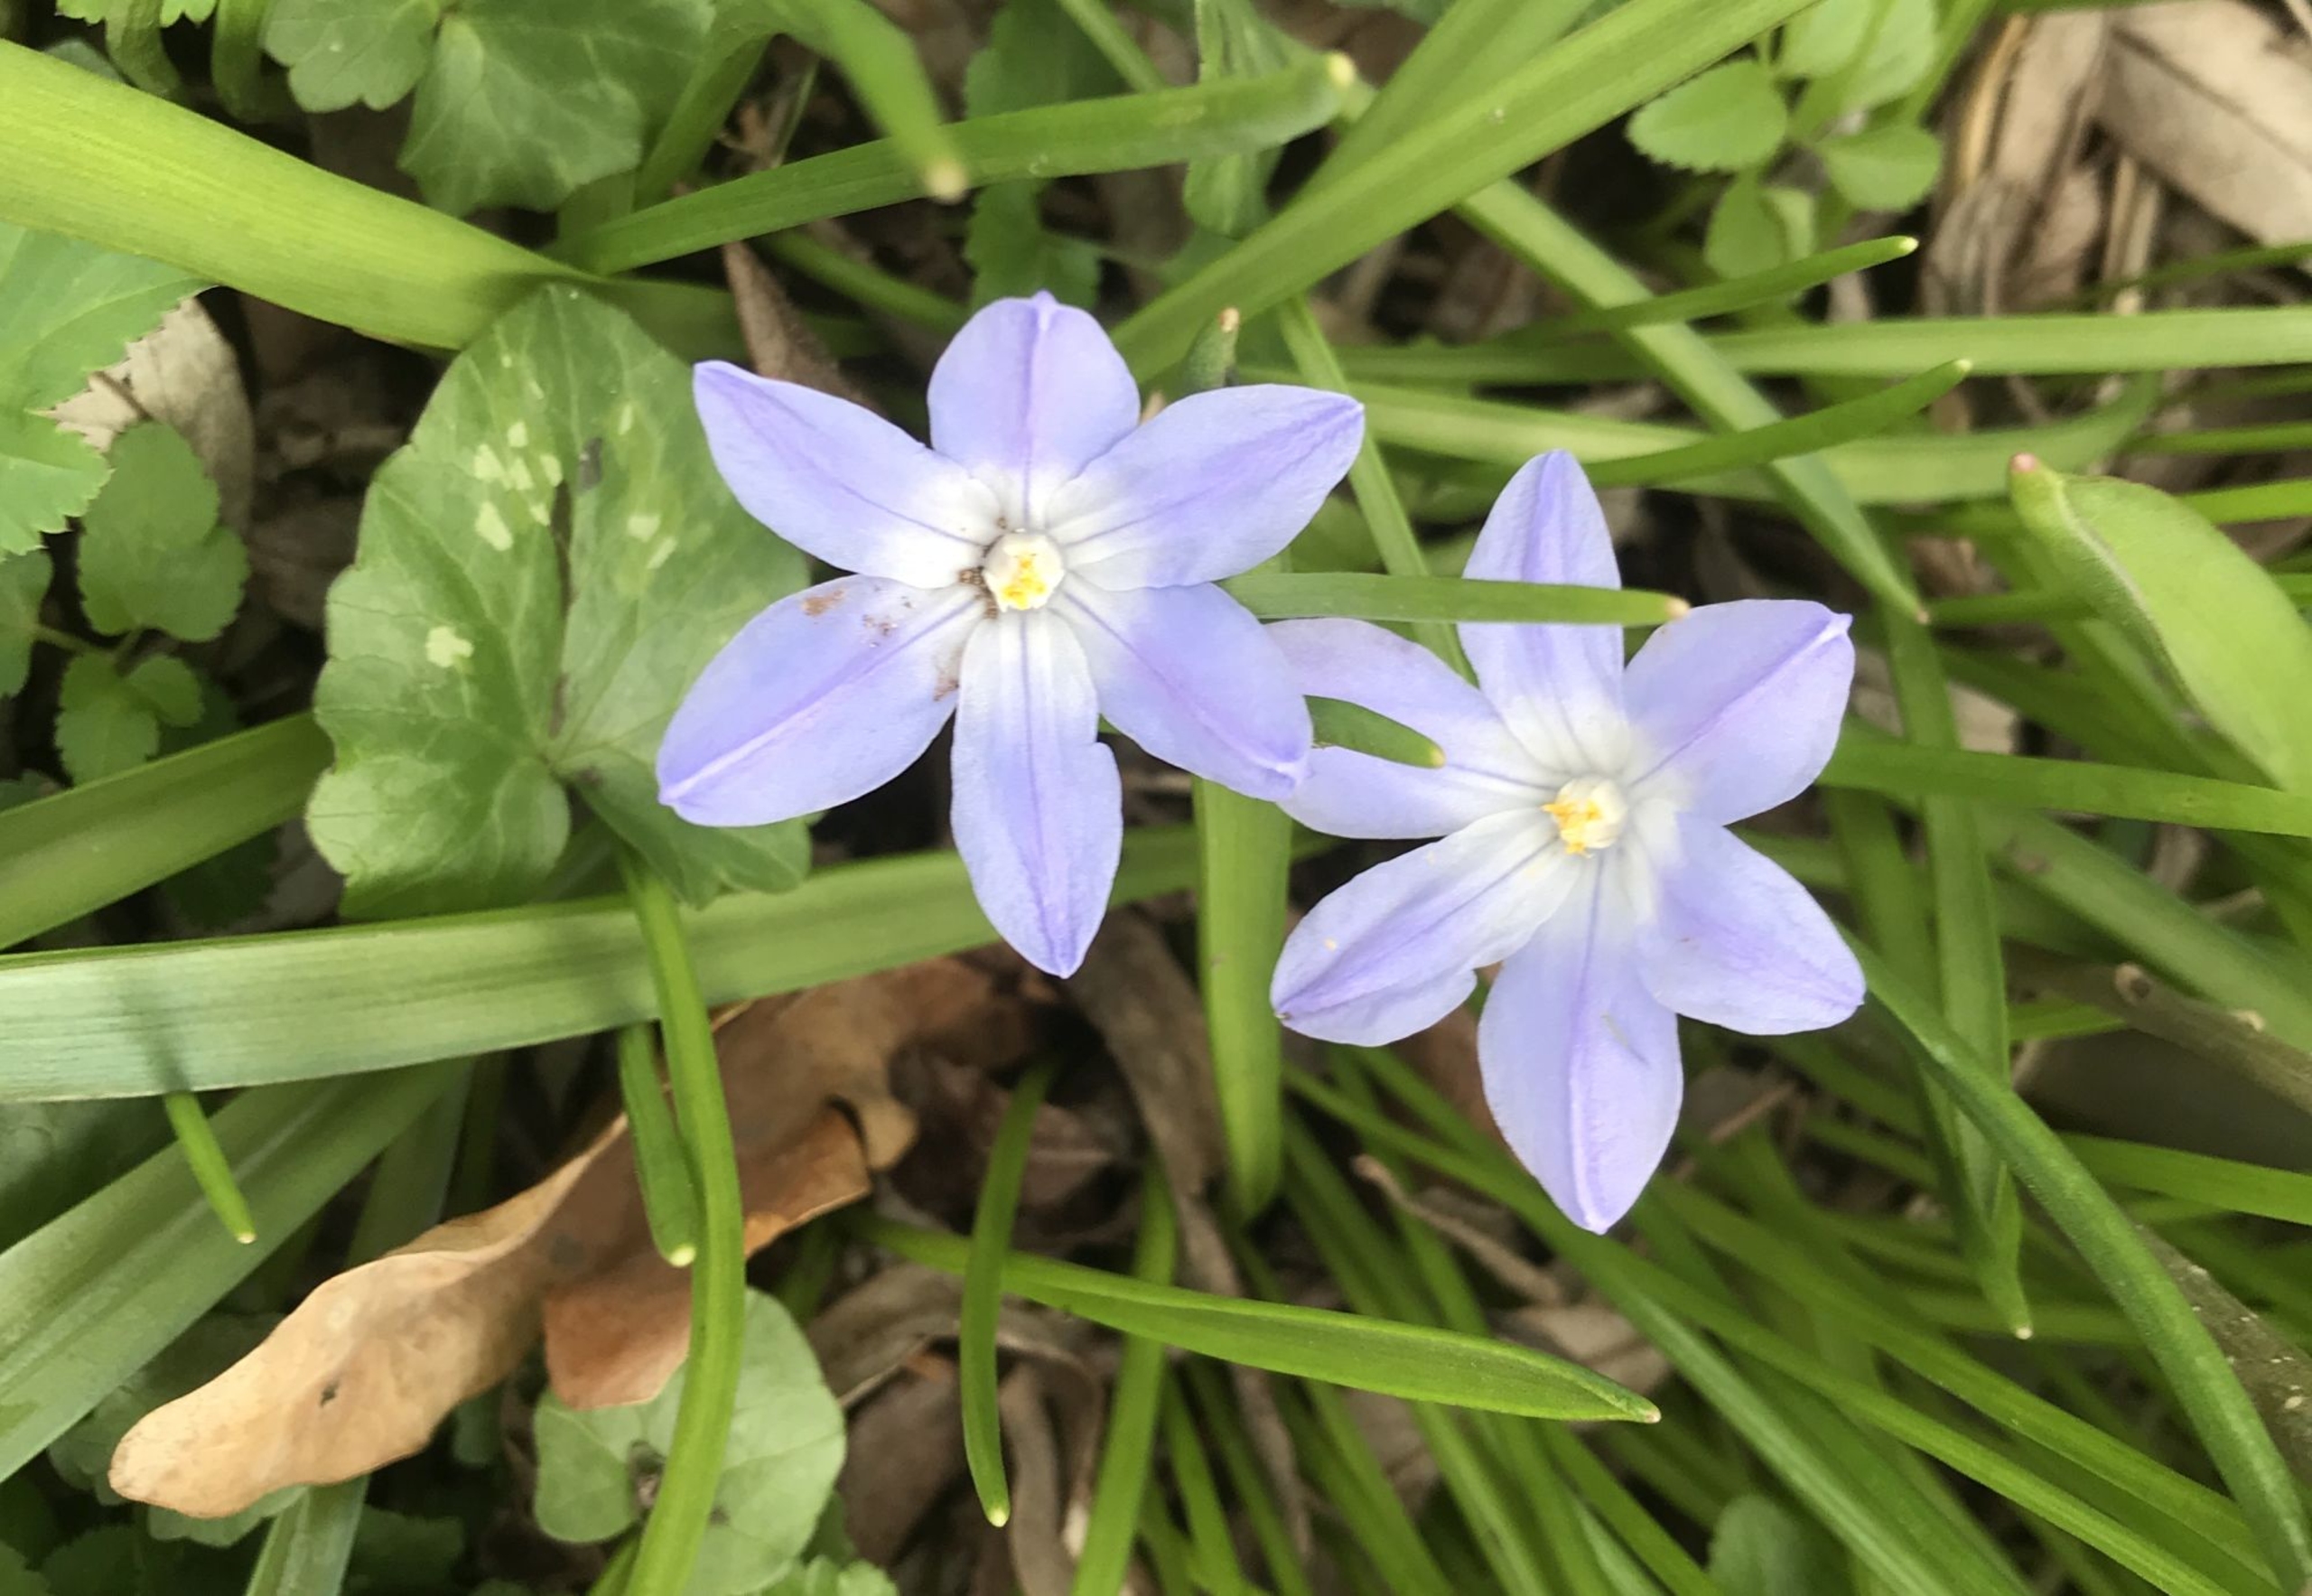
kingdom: Plantae
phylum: Tracheophyta
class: Liliopsida
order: Asparagales
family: Asparagaceae
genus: Scilla
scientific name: Scilla luciliae
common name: Stor snepryd
